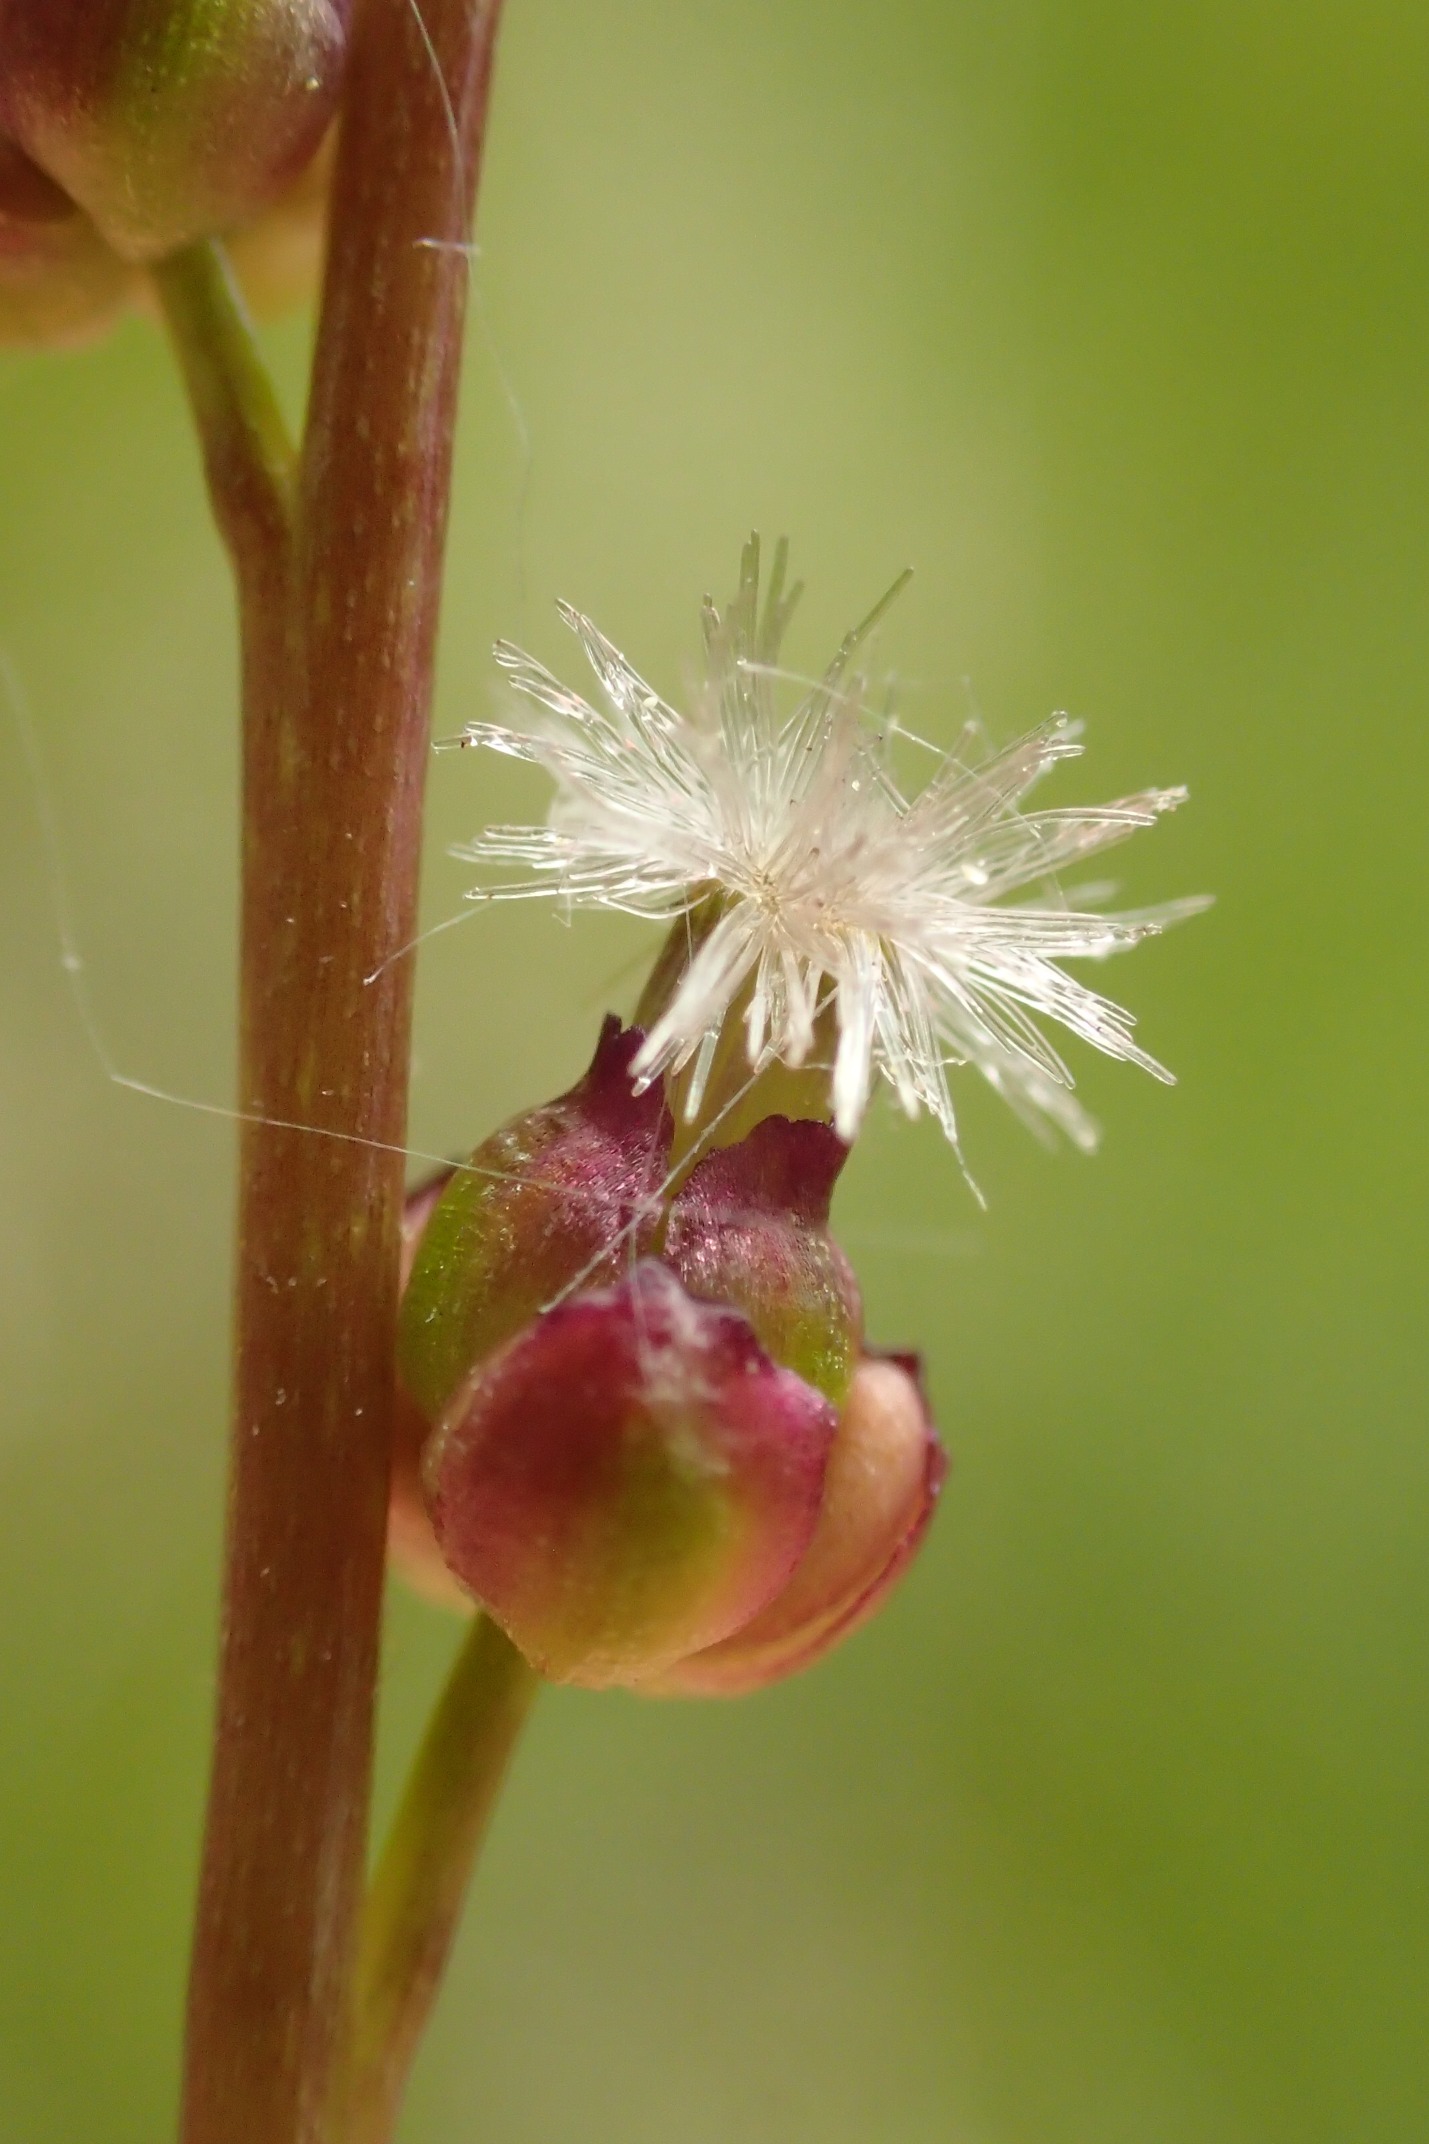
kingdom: Plantae
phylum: Tracheophyta
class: Liliopsida
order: Alismatales
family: Juncaginaceae
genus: Triglochin
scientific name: Triglochin palustris
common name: Kær-trehage
